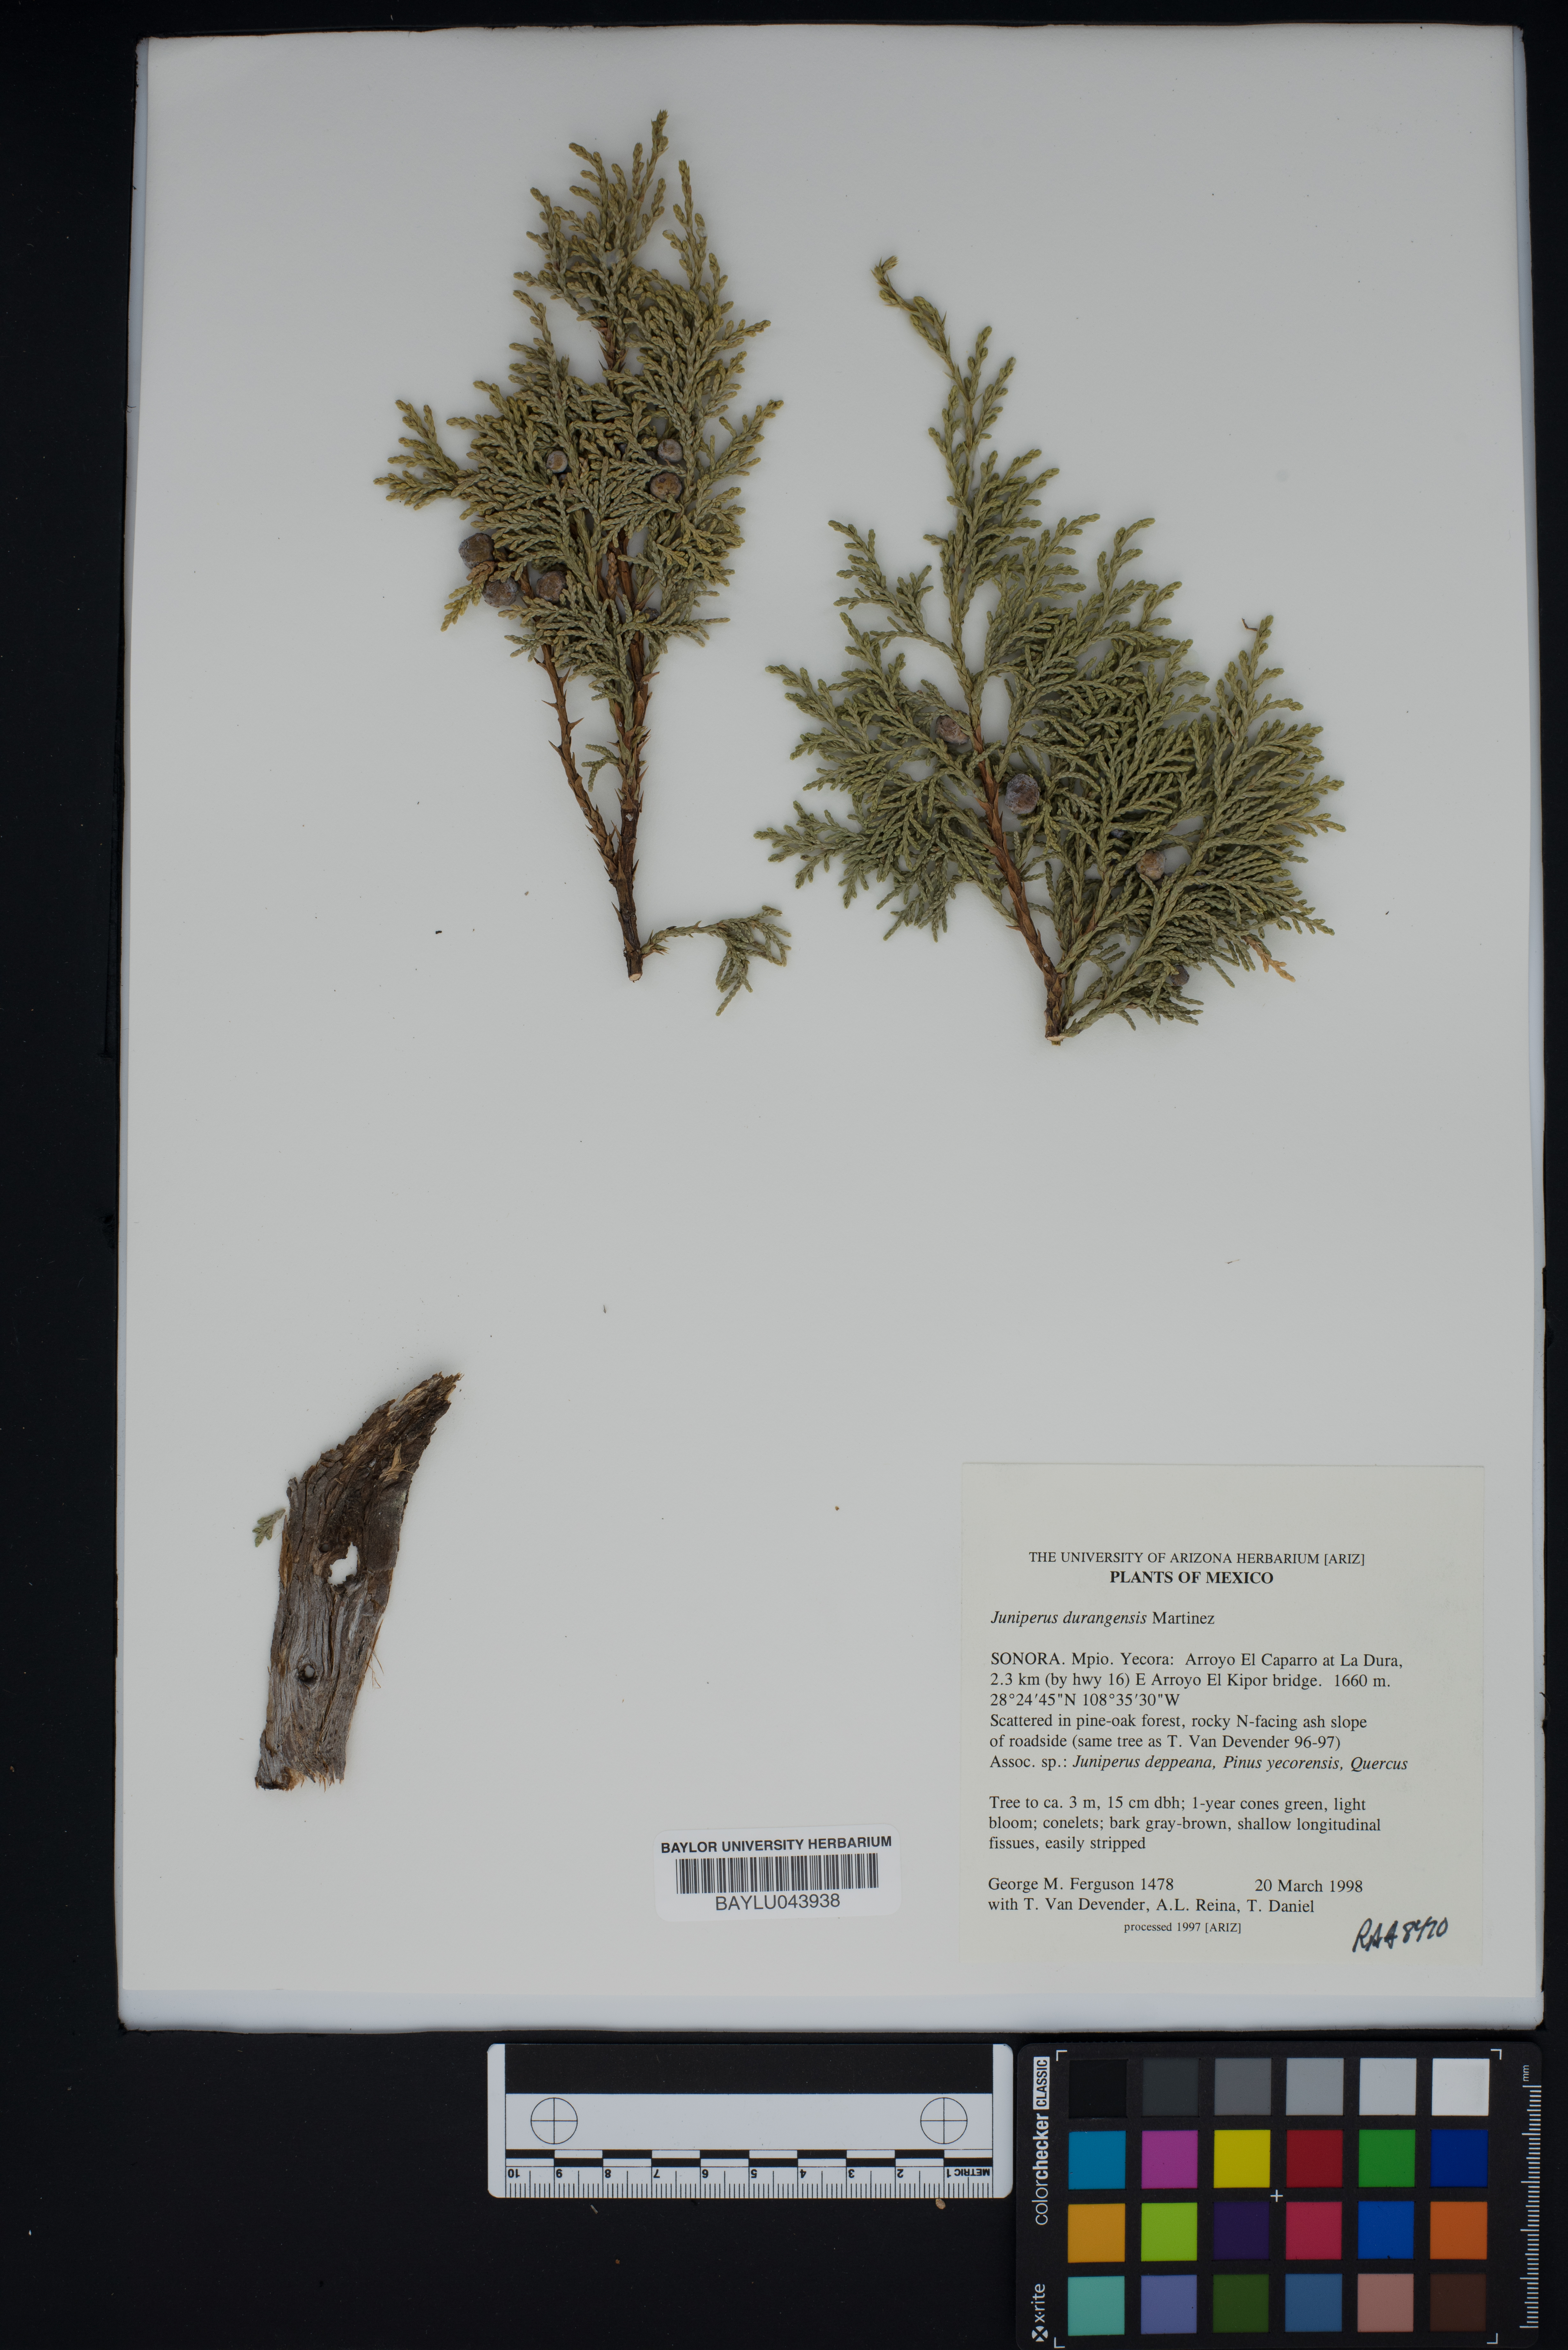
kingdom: Plantae
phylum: Tracheophyta
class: Pinopsida
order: Pinales
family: Cupressaceae
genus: Juniperus
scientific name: Juniperus durangensis
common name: Durango juniper
